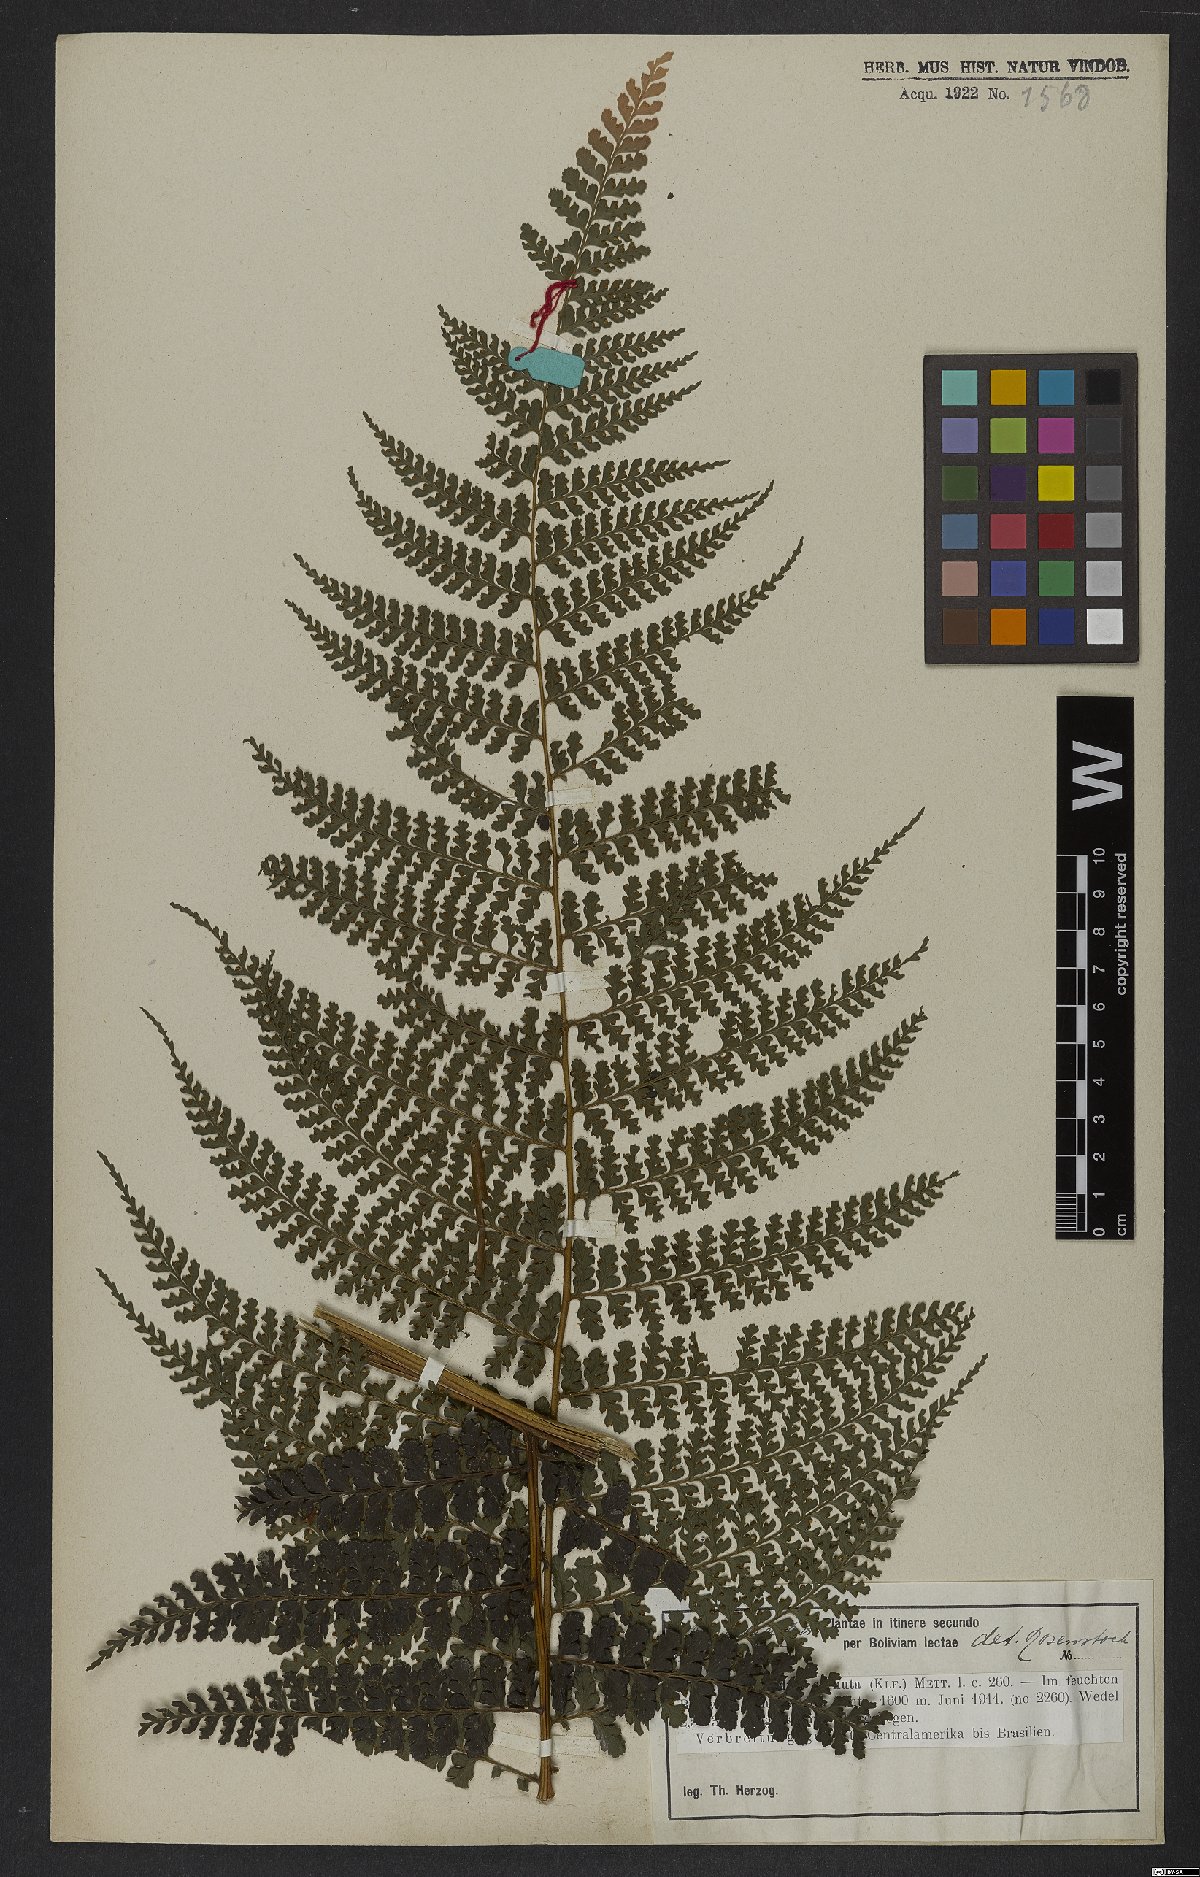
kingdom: Plantae
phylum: Tracheophyta
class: Polypodiopsida
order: Polypodiales
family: Dennstaedtiaceae
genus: Dennstaedtia
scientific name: Dennstaedtia cornuta
